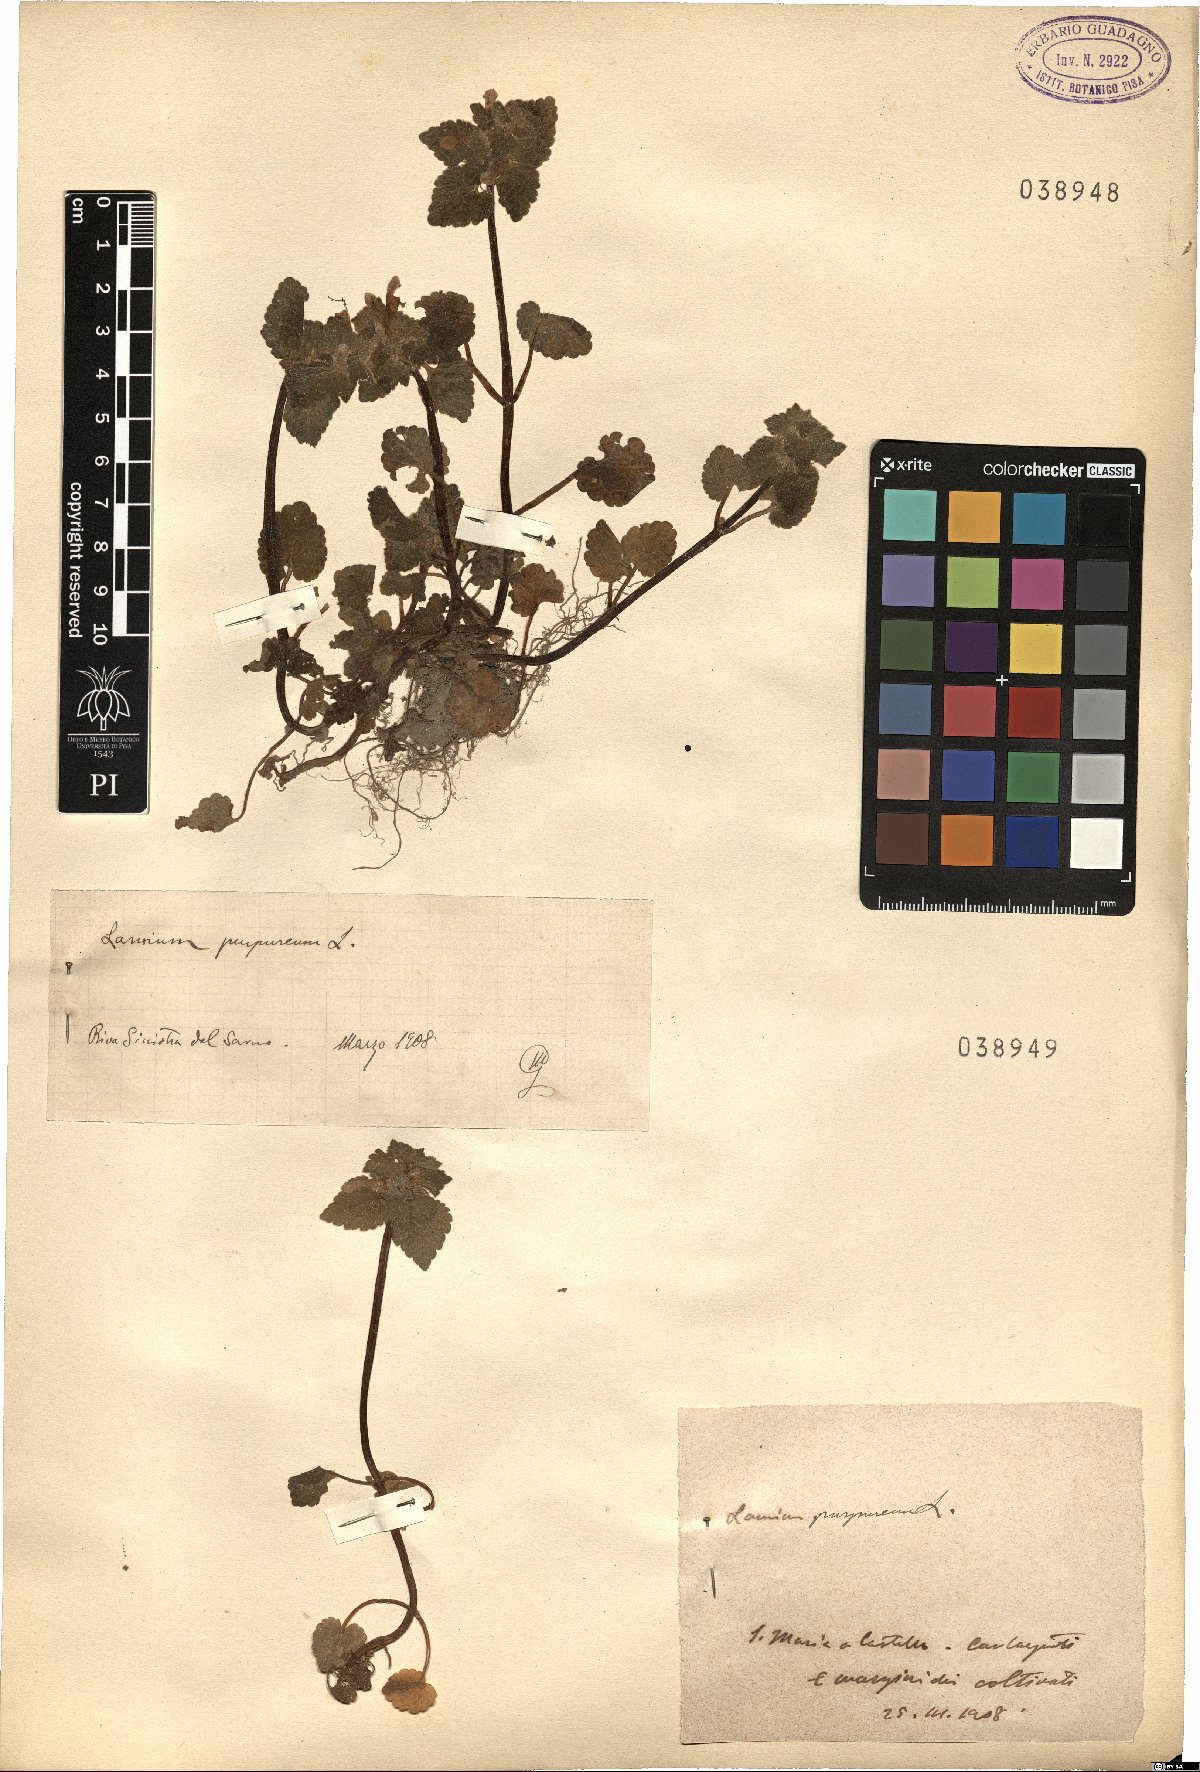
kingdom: Plantae
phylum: Tracheophyta
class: Magnoliopsida
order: Lamiales
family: Lamiaceae
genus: Lamium
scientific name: Lamium purpureum
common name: Red dead-nettle
